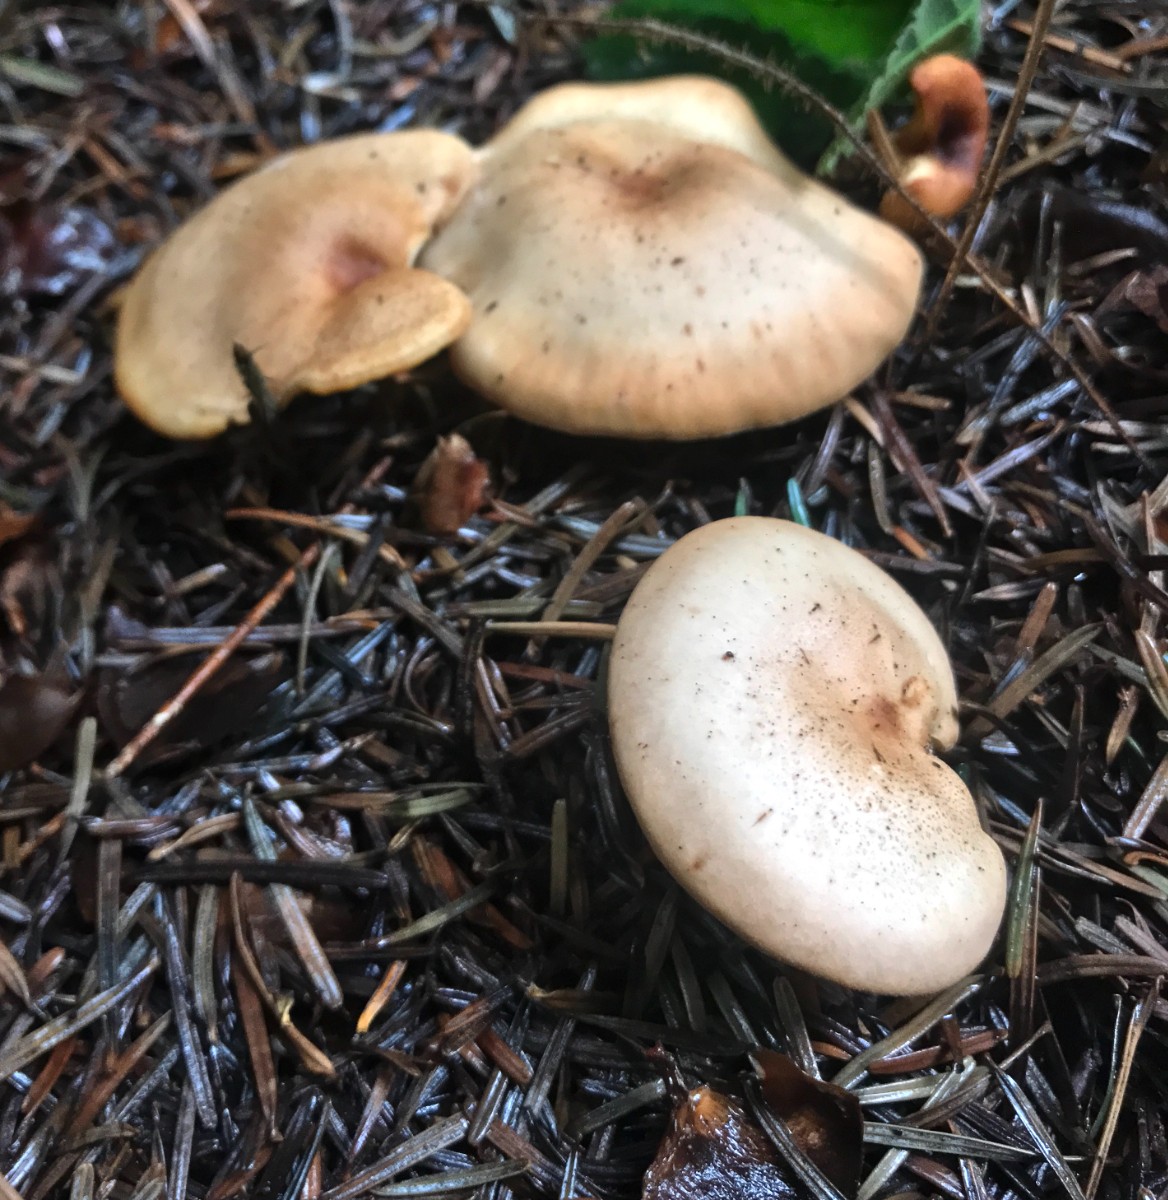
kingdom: Fungi
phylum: Basidiomycota
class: Agaricomycetes
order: Agaricales
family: Tricholomataceae
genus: Paralepista
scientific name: Paralepista flaccida
